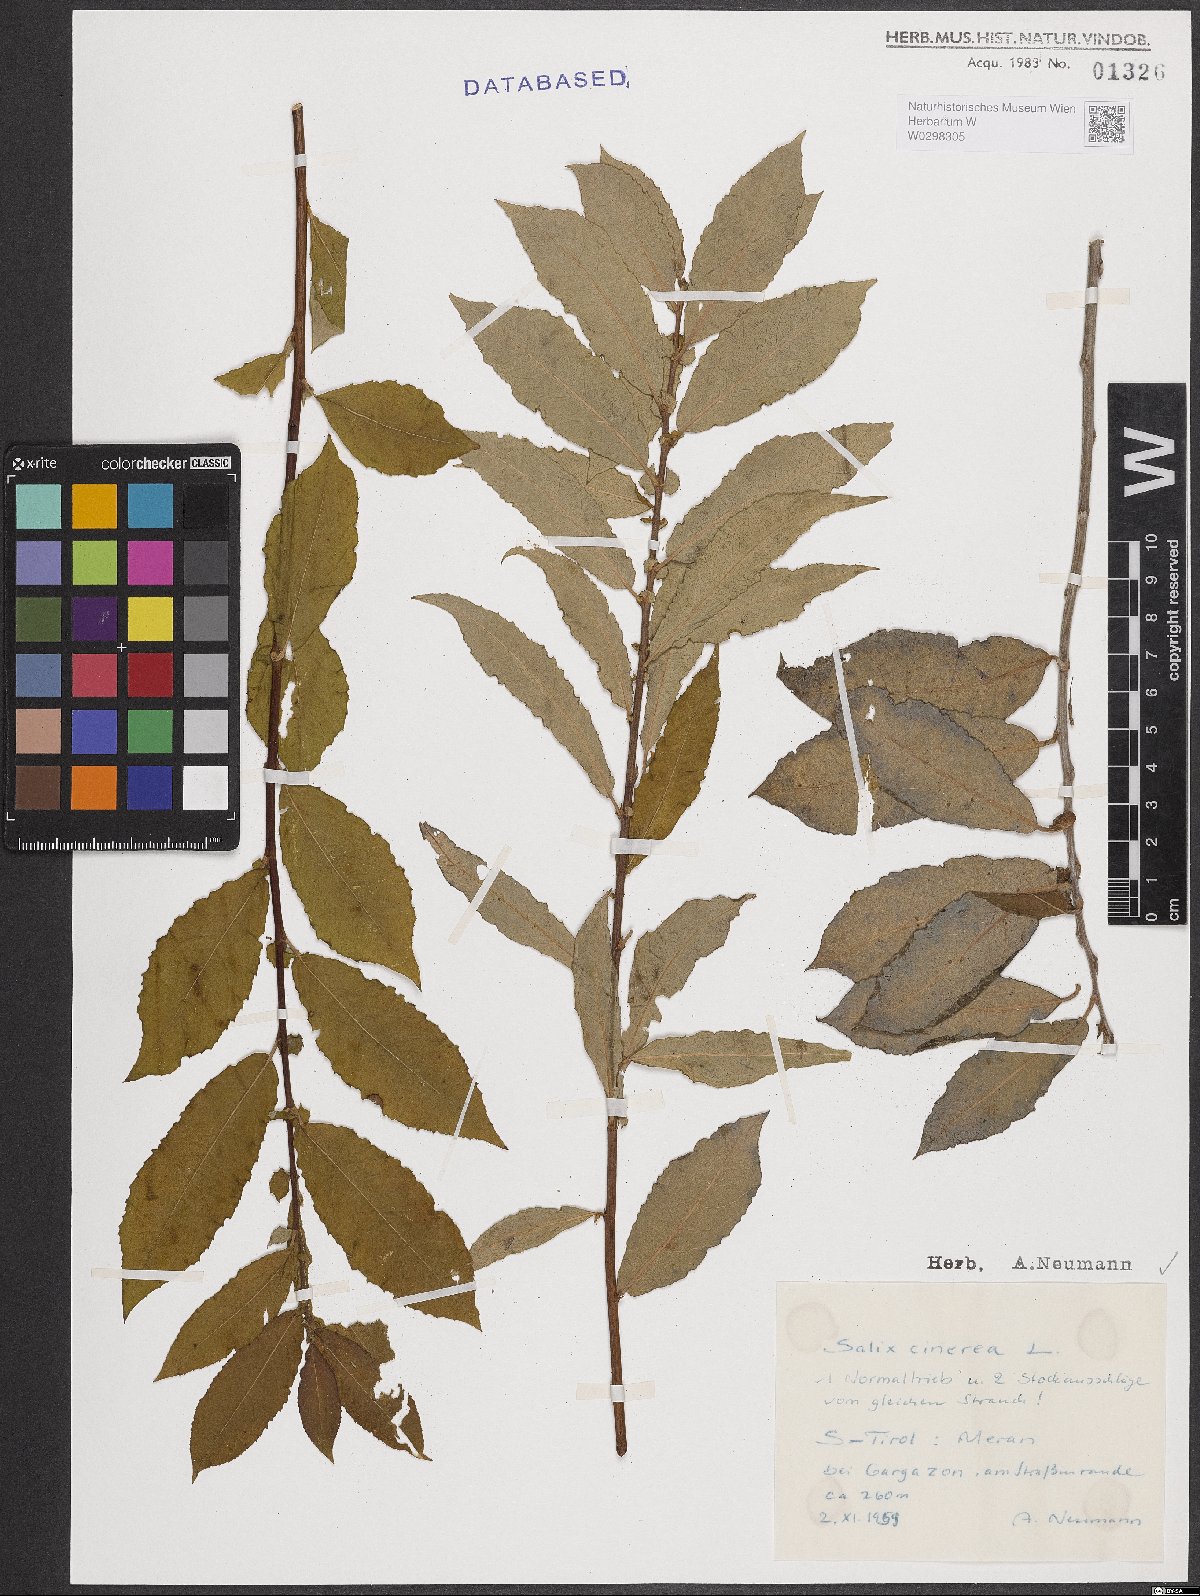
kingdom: Plantae
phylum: Tracheophyta
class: Magnoliopsida
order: Malpighiales
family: Salicaceae
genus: Salix
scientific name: Salix cinerea
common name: Common sallow
